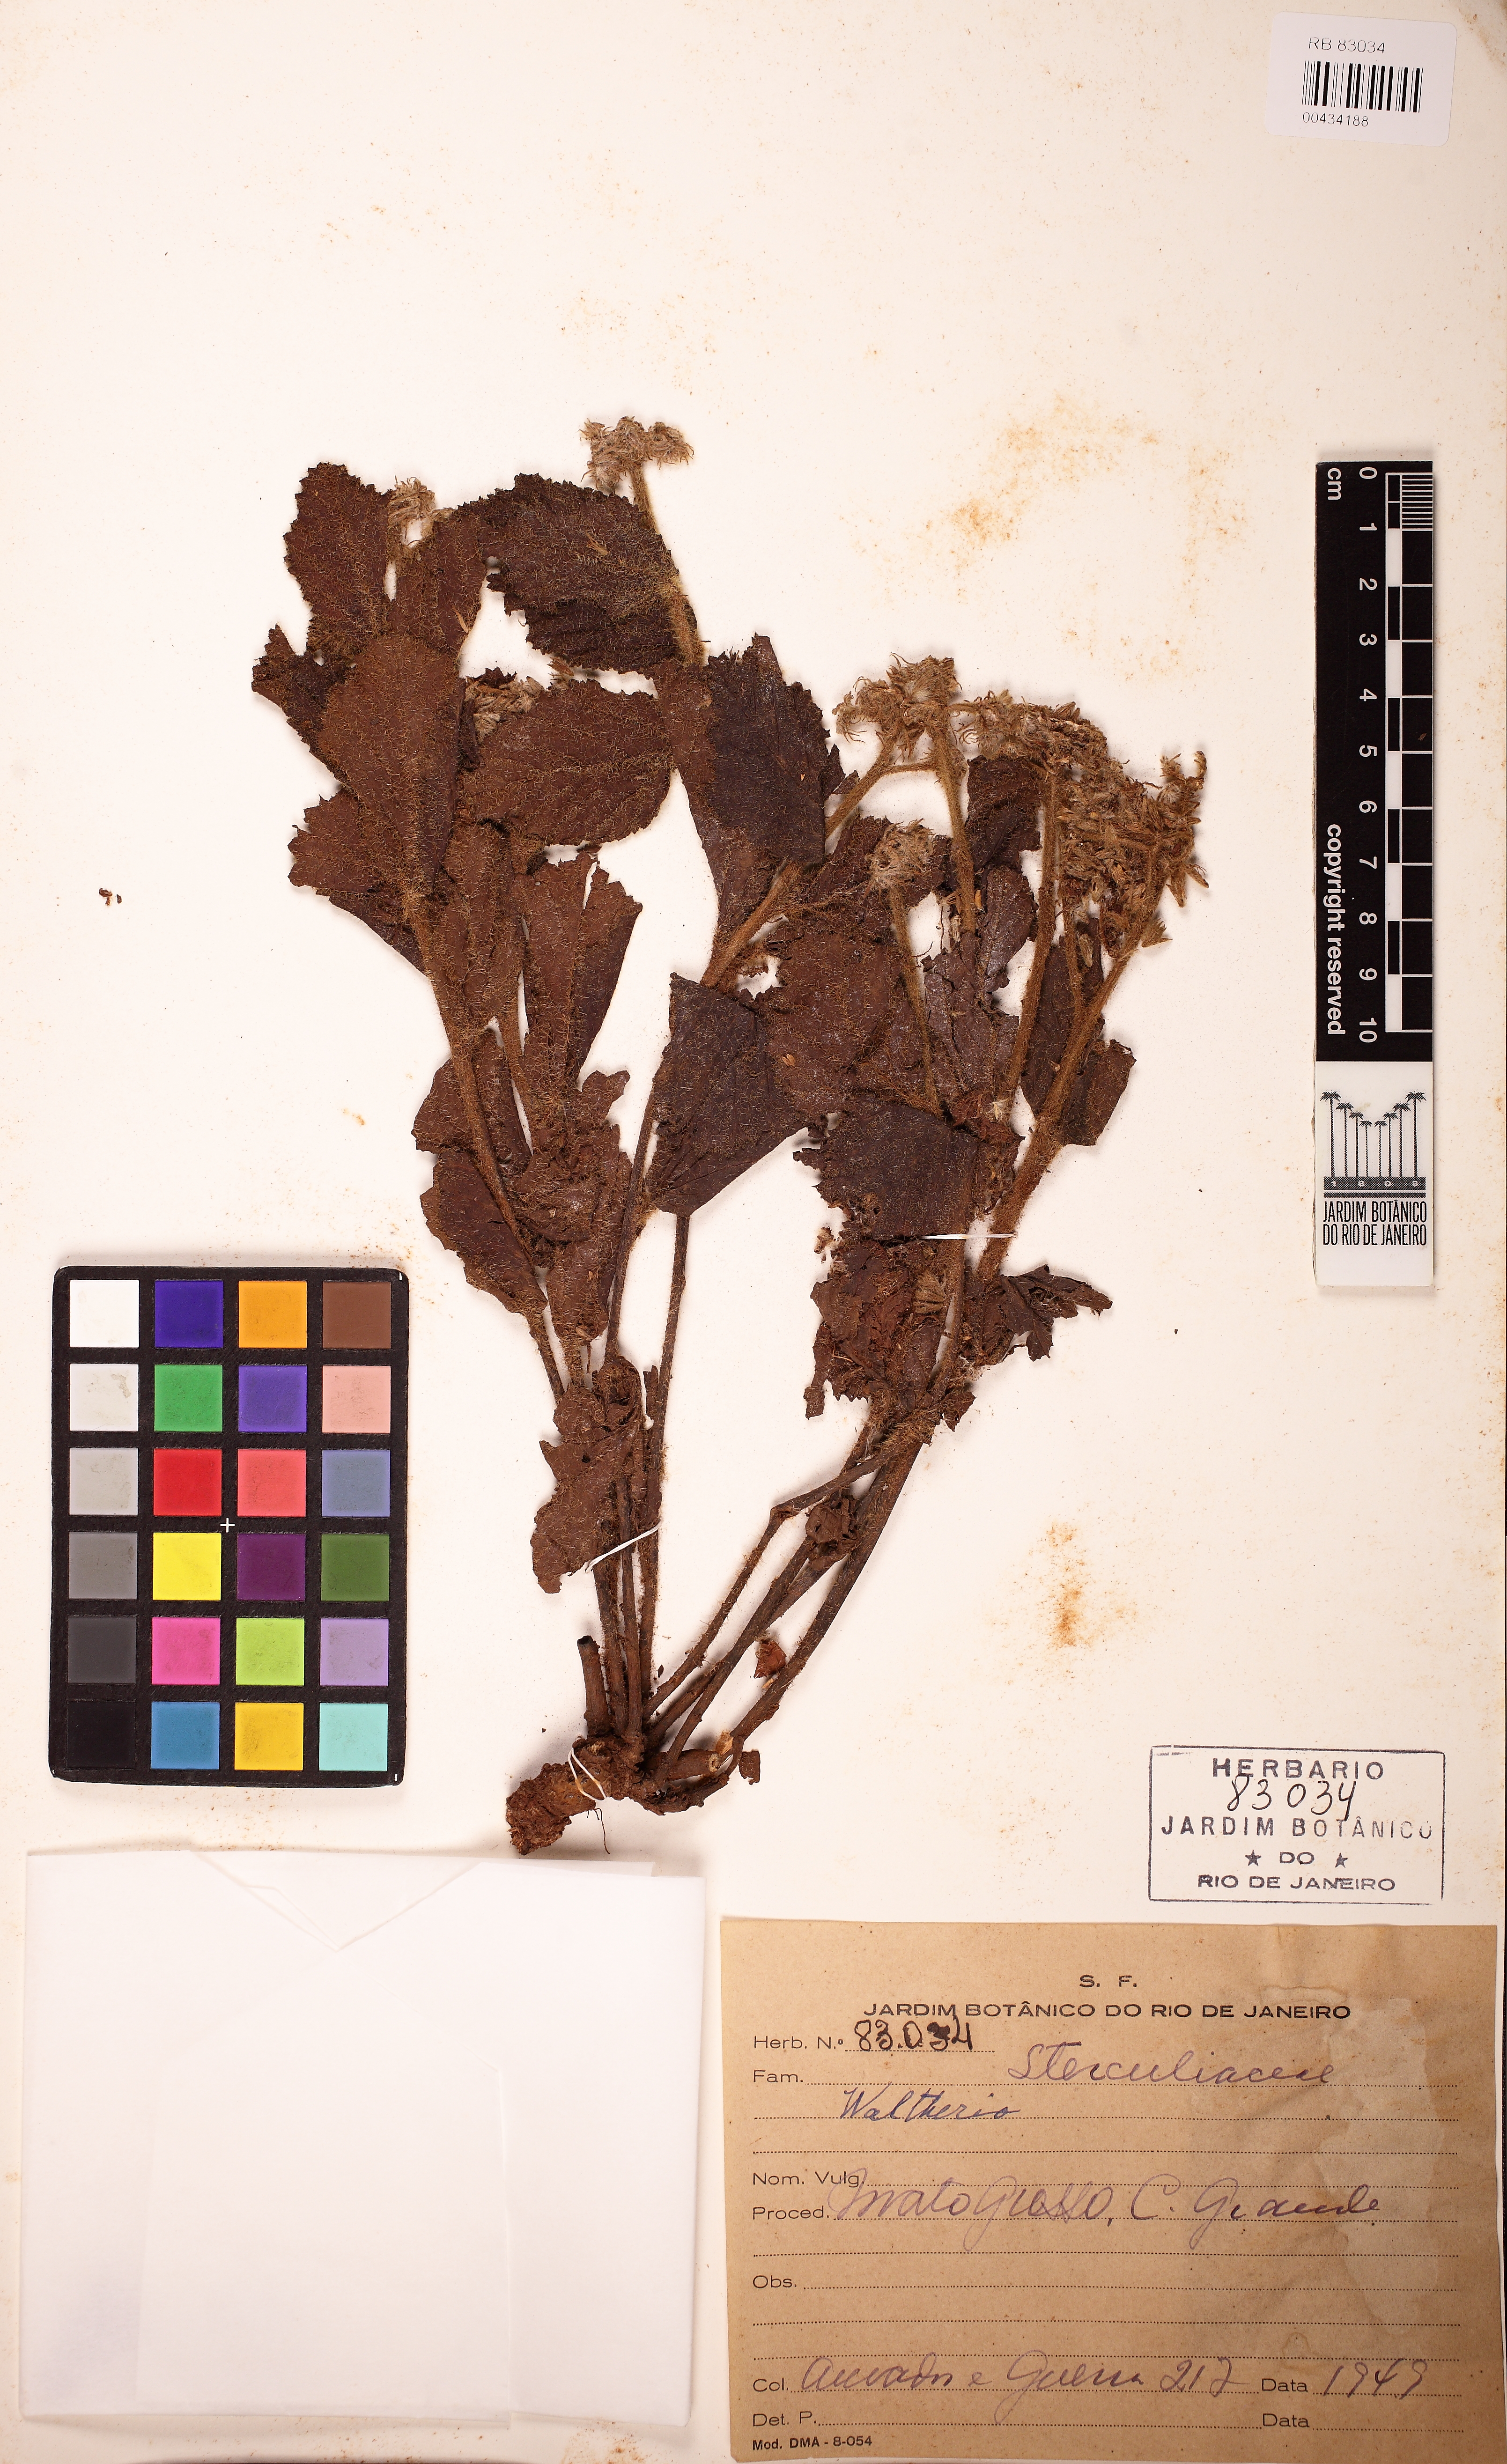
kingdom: Plantae
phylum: Tracheophyta
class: Magnoliopsida
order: Malvales
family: Malvaceae
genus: Waltheria
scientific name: Waltheria communis
